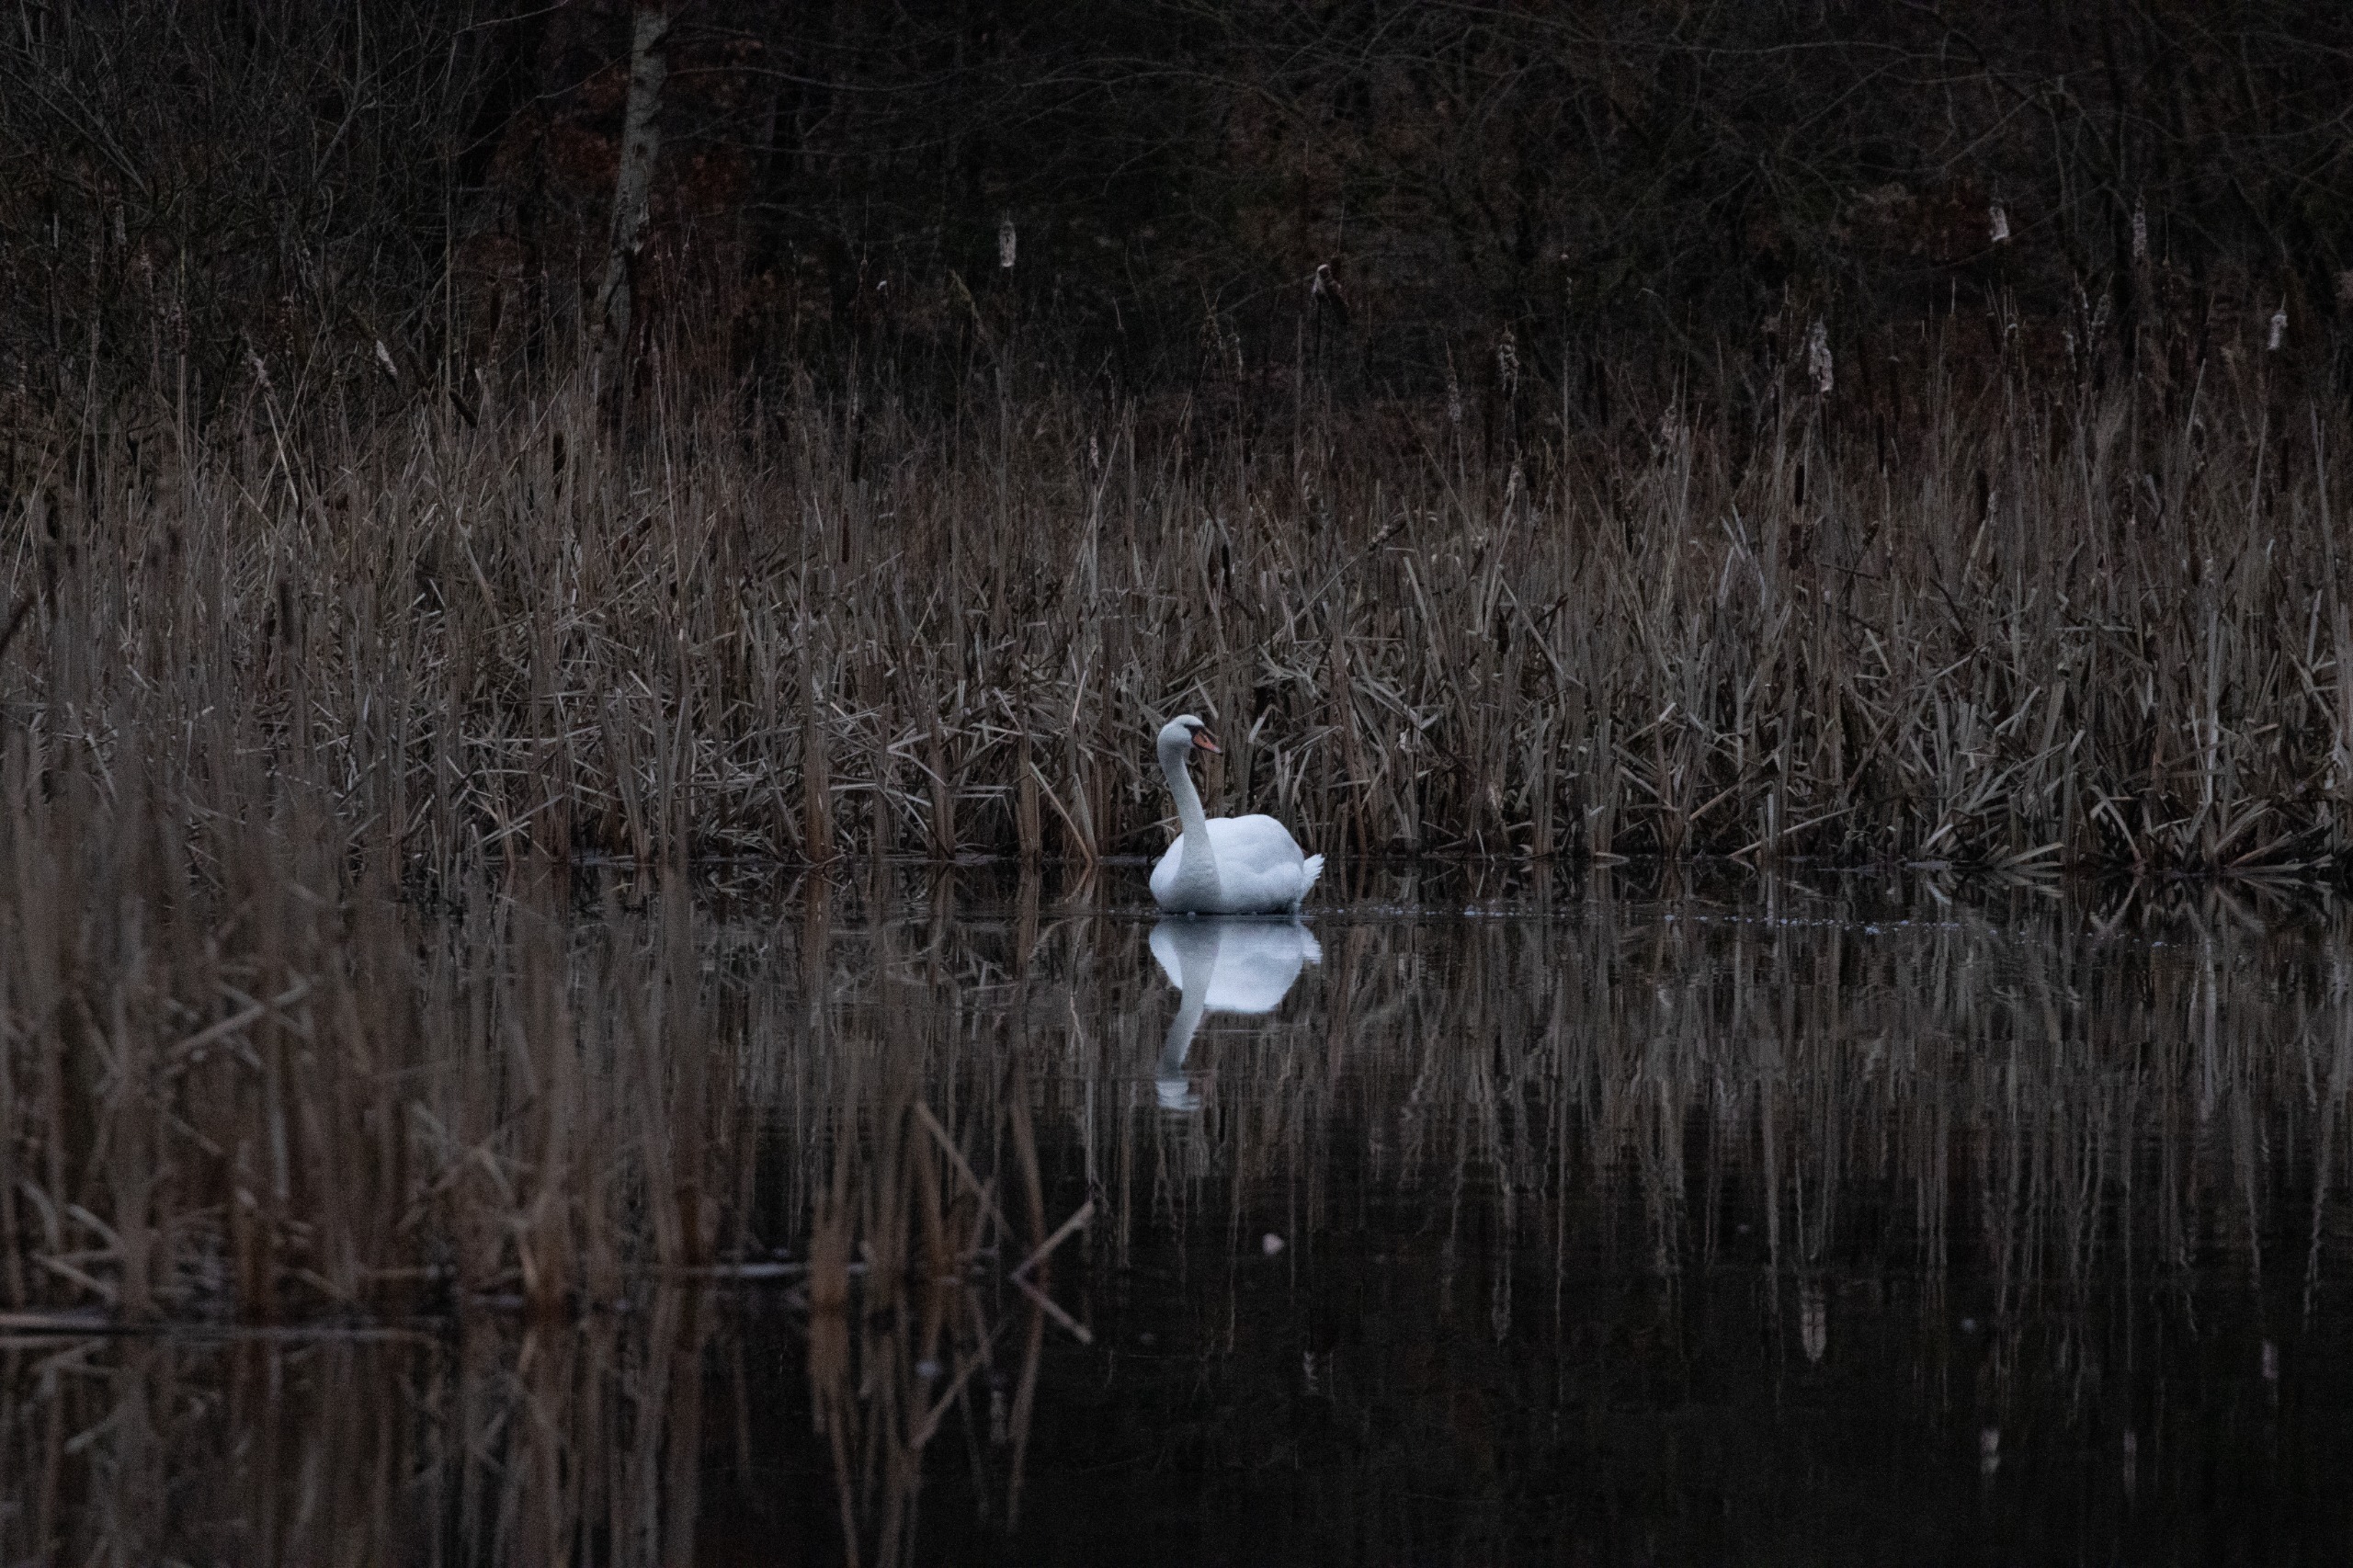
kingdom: Animalia
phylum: Chordata
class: Aves
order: Anseriformes
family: Anatidae
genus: Cygnus
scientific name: Cygnus olor
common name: Knopsvane
